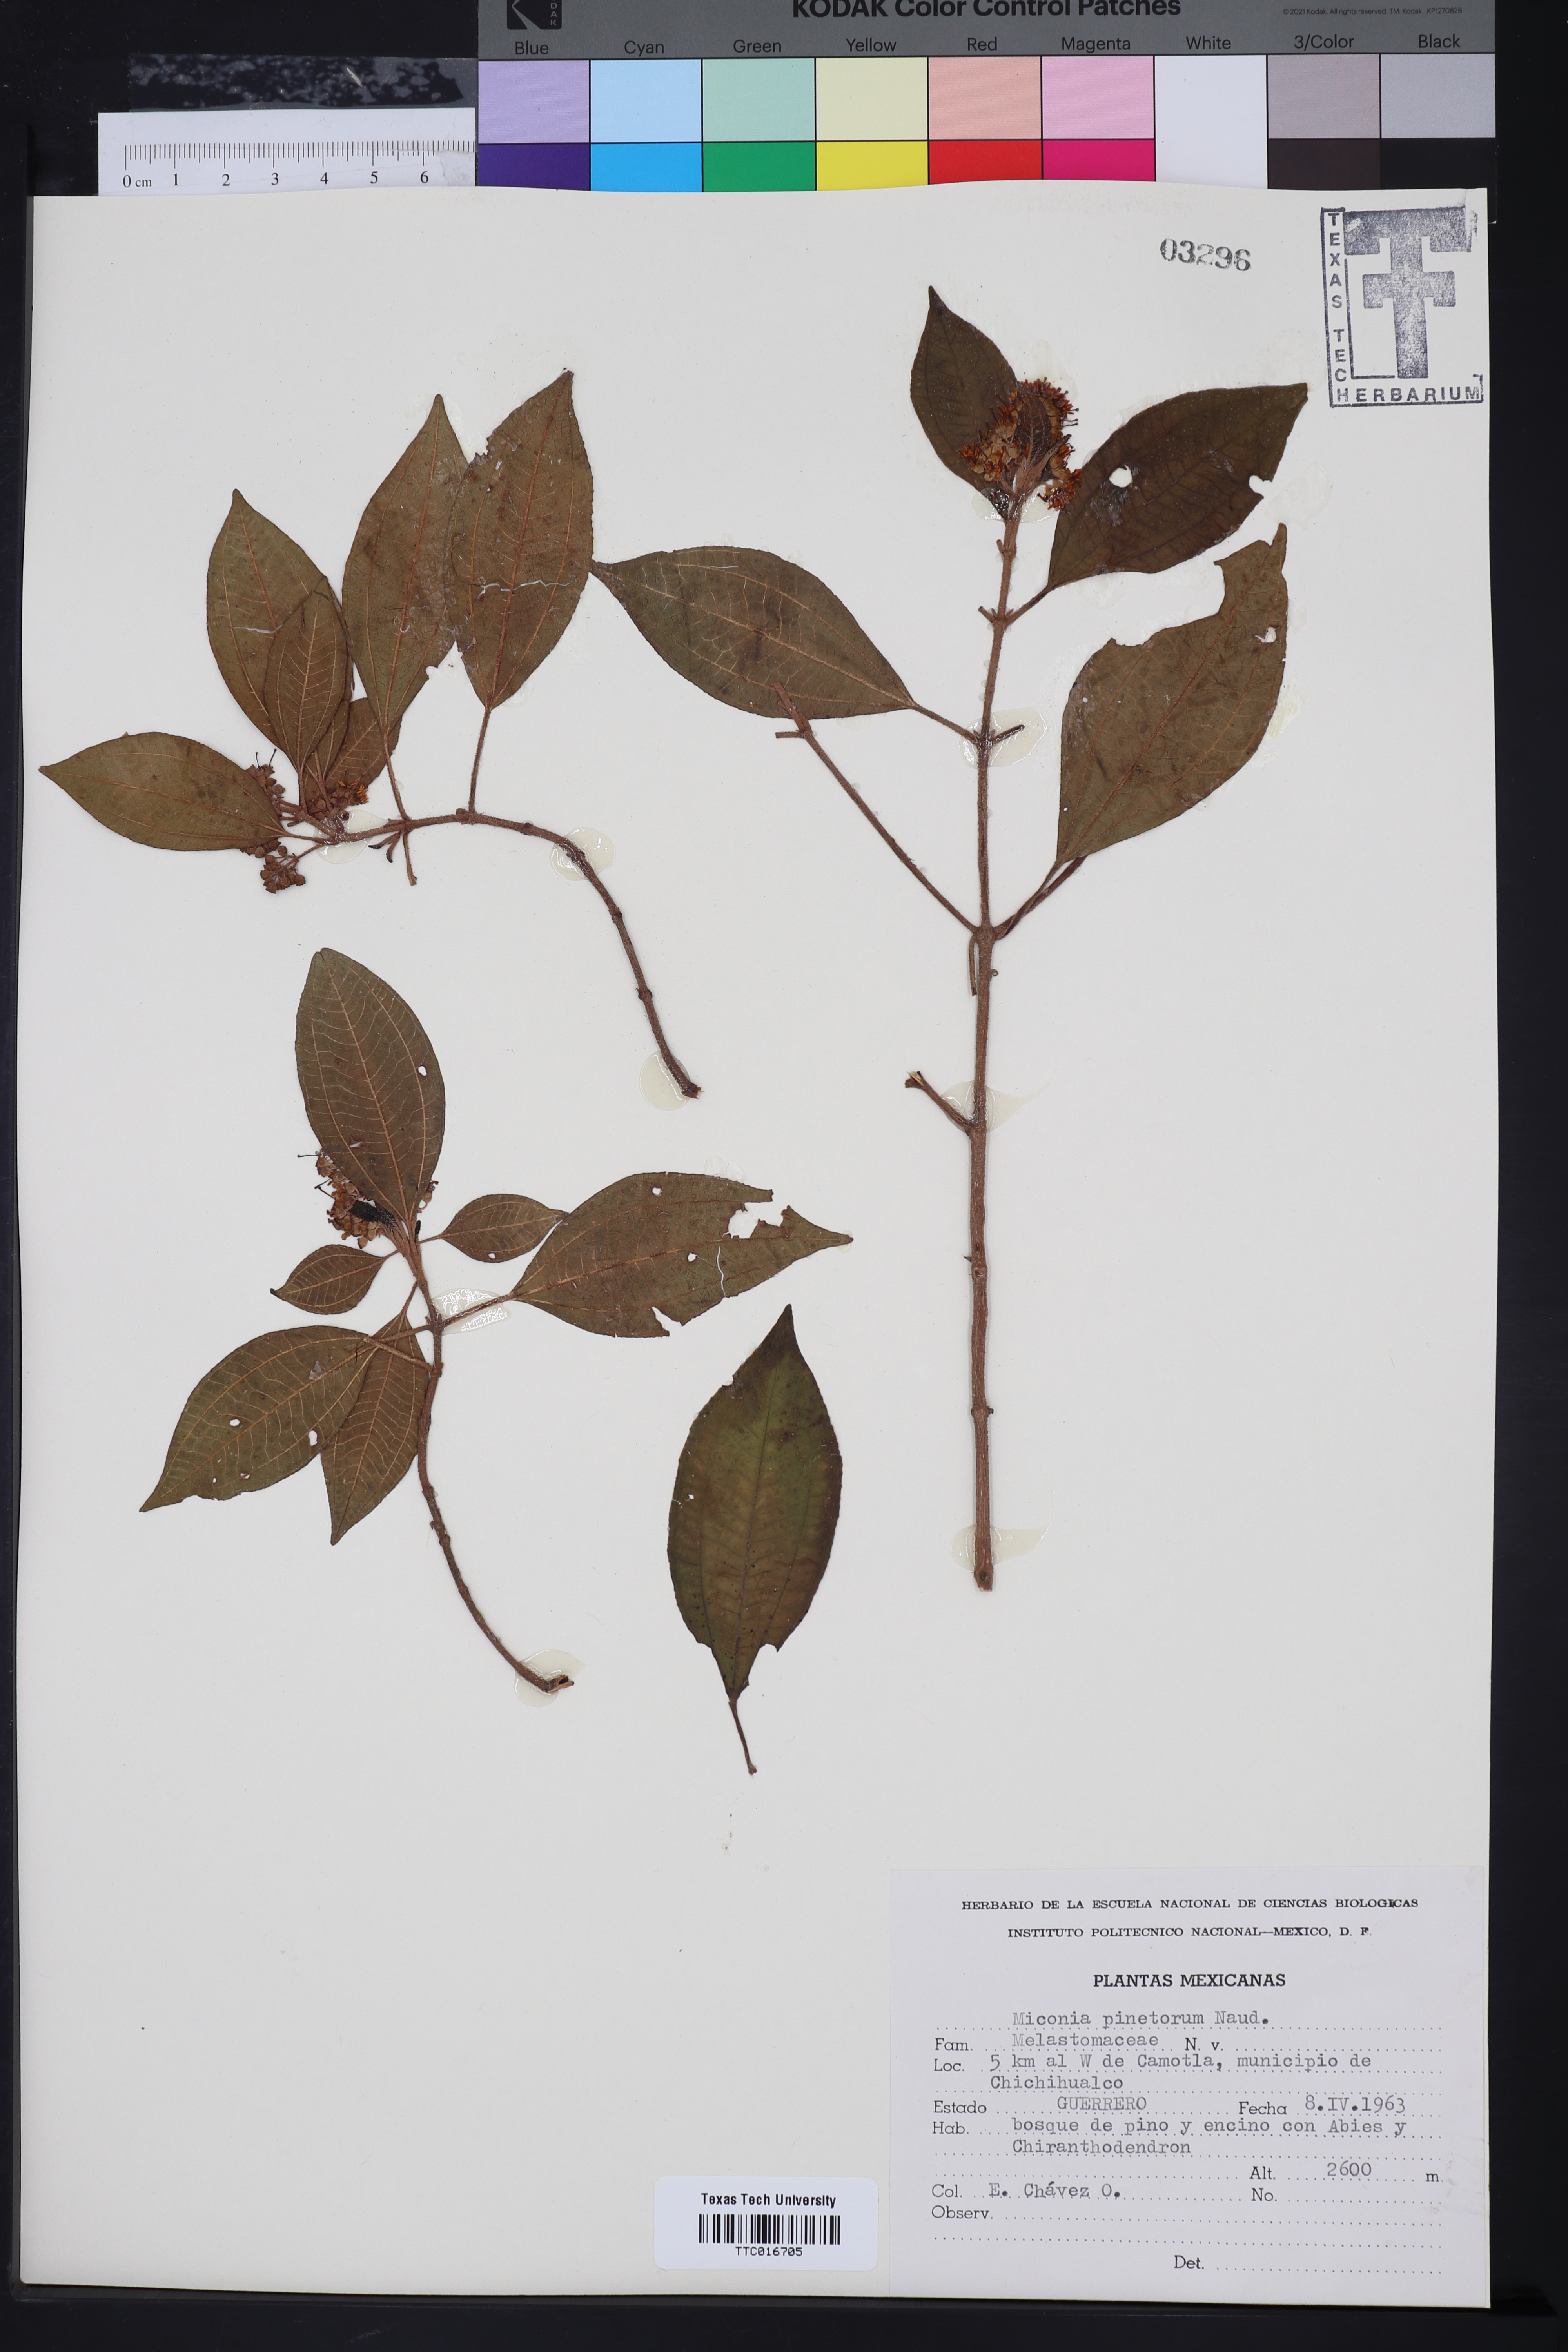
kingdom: Plantae
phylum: Tracheophyta
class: Magnoliopsida
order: Myrtales
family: Melastomataceae
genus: Miconia
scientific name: Miconia pinetorum
